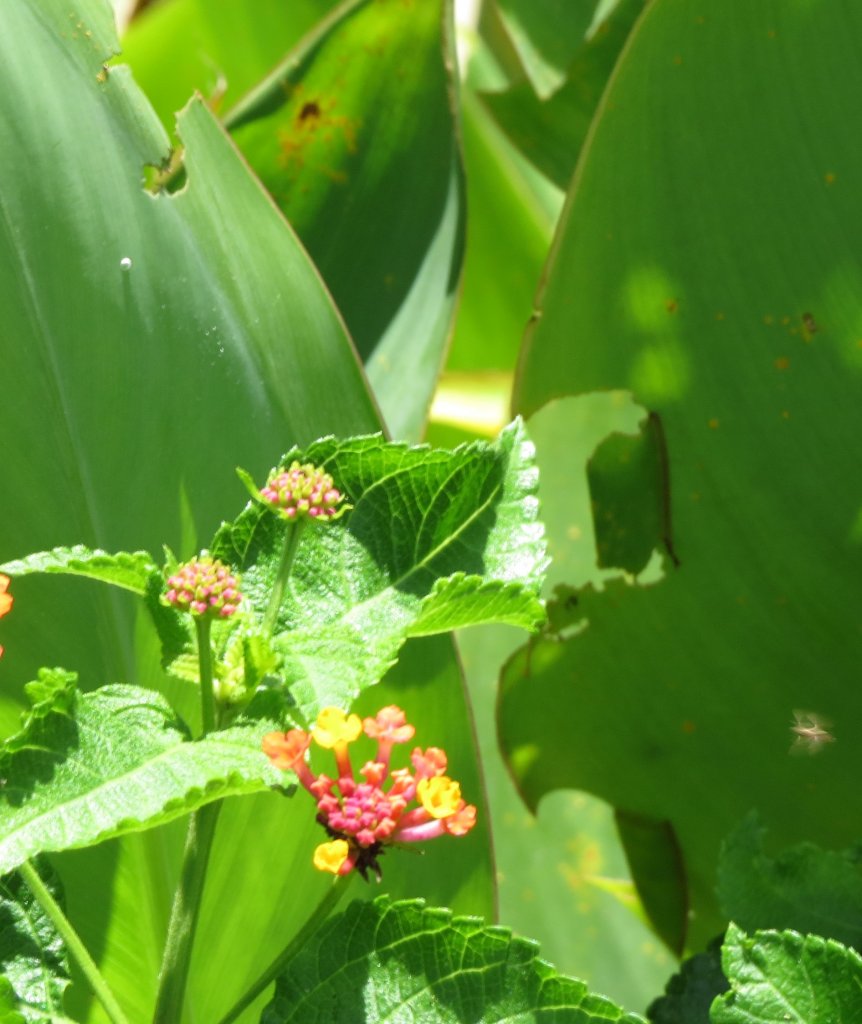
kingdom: Animalia
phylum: Arthropoda
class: Insecta
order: Lepidoptera
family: Hesperiidae
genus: Calpodes
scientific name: Calpodes ethlius
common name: Brazilian Skipper
